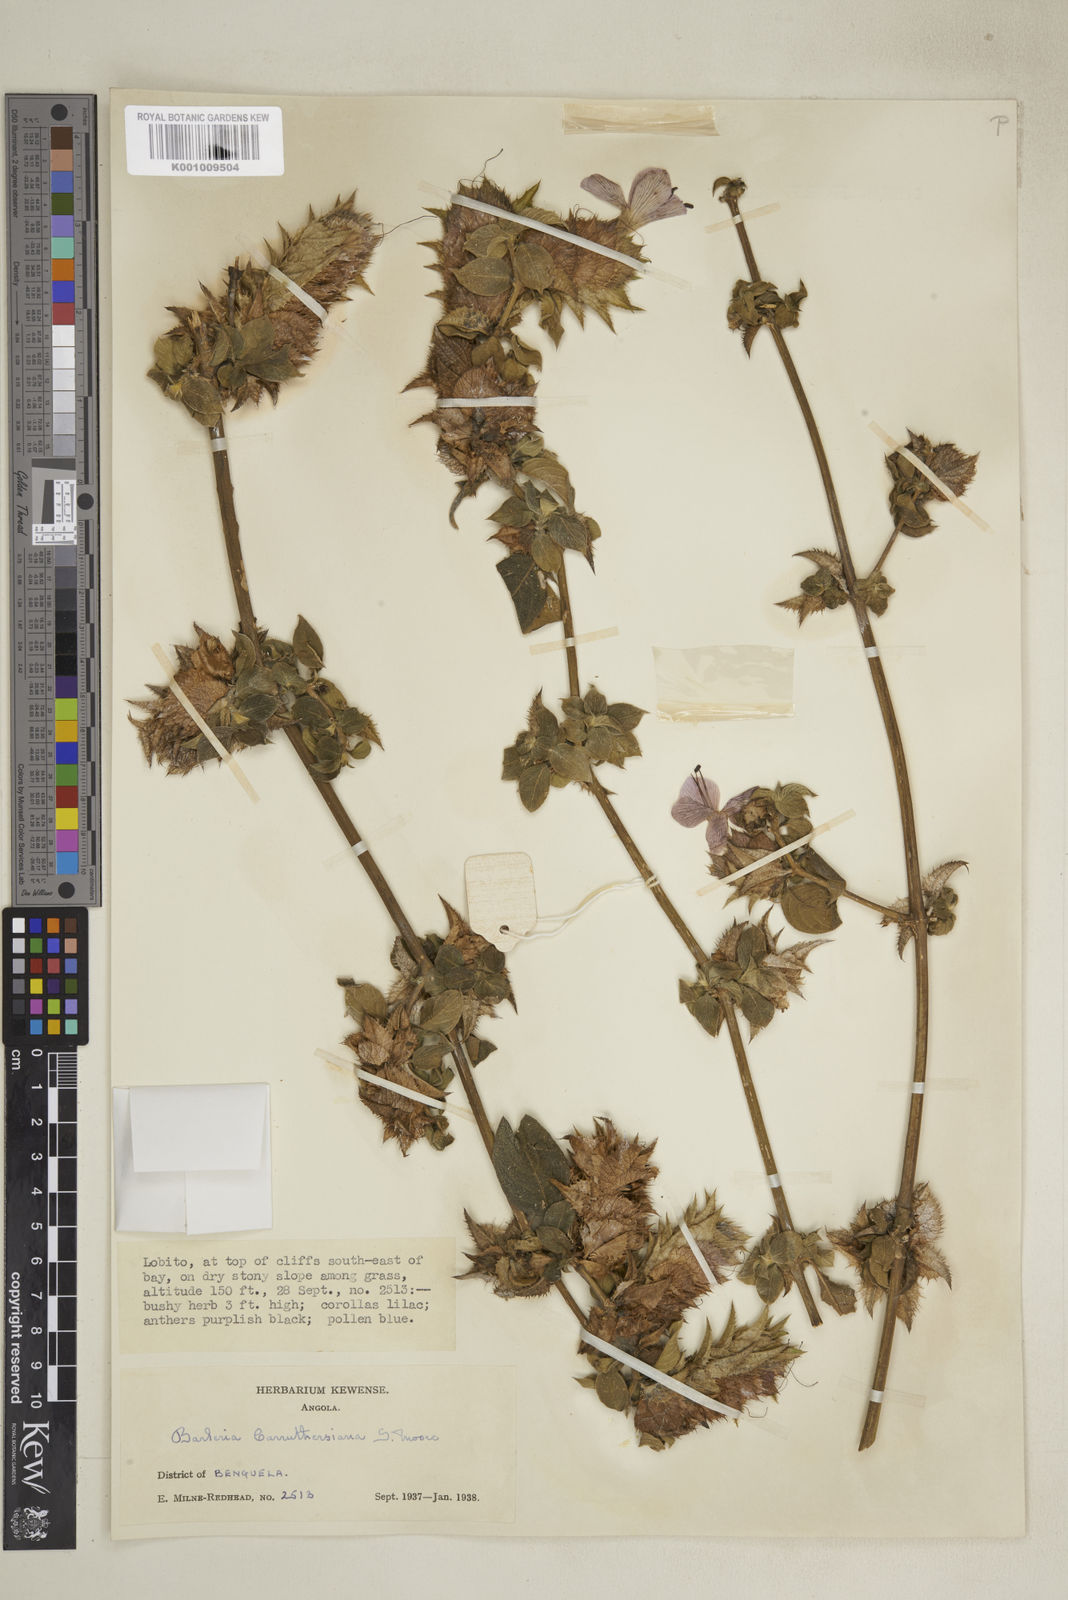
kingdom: Plantae
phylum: Tracheophyta
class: Magnoliopsida
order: Lamiales
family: Acanthaceae
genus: Barleria
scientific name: Barleria carruthersiana
